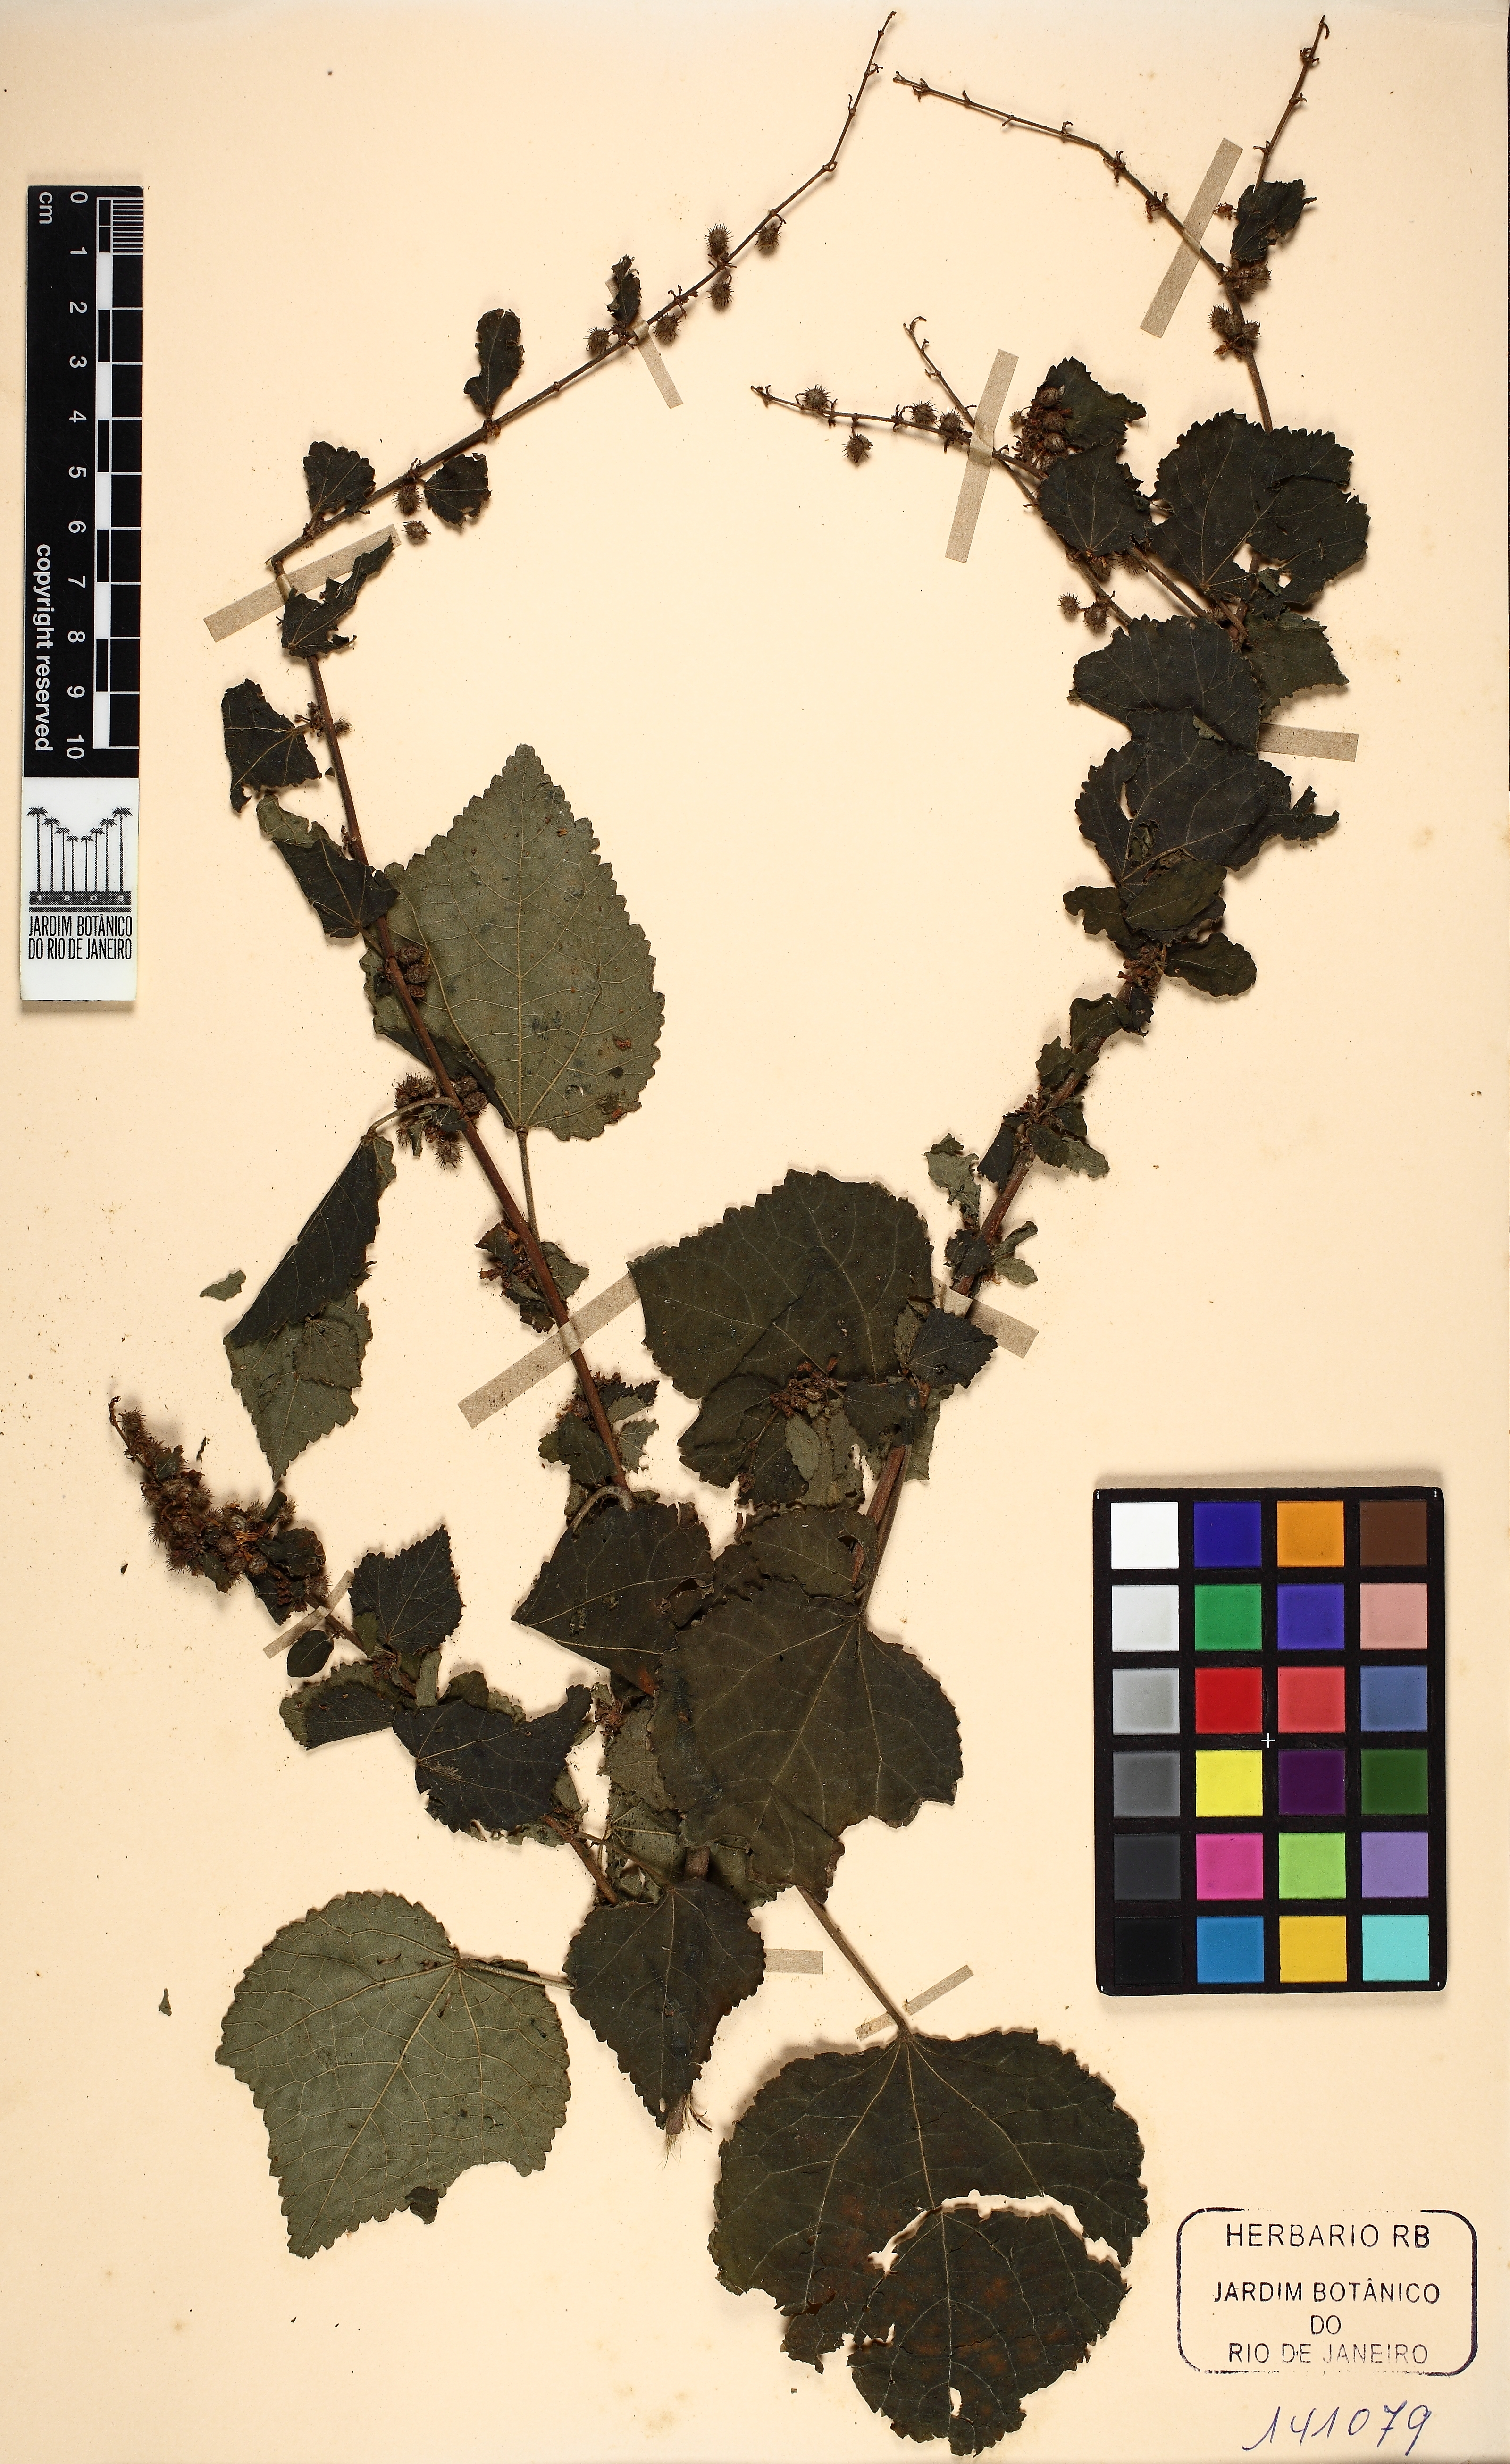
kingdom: Plantae
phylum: Tracheophyta
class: Magnoliopsida
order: Malvales
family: Malvaceae
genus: Triumfetta
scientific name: Triumfetta semitriloba
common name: Sacramento burbark
